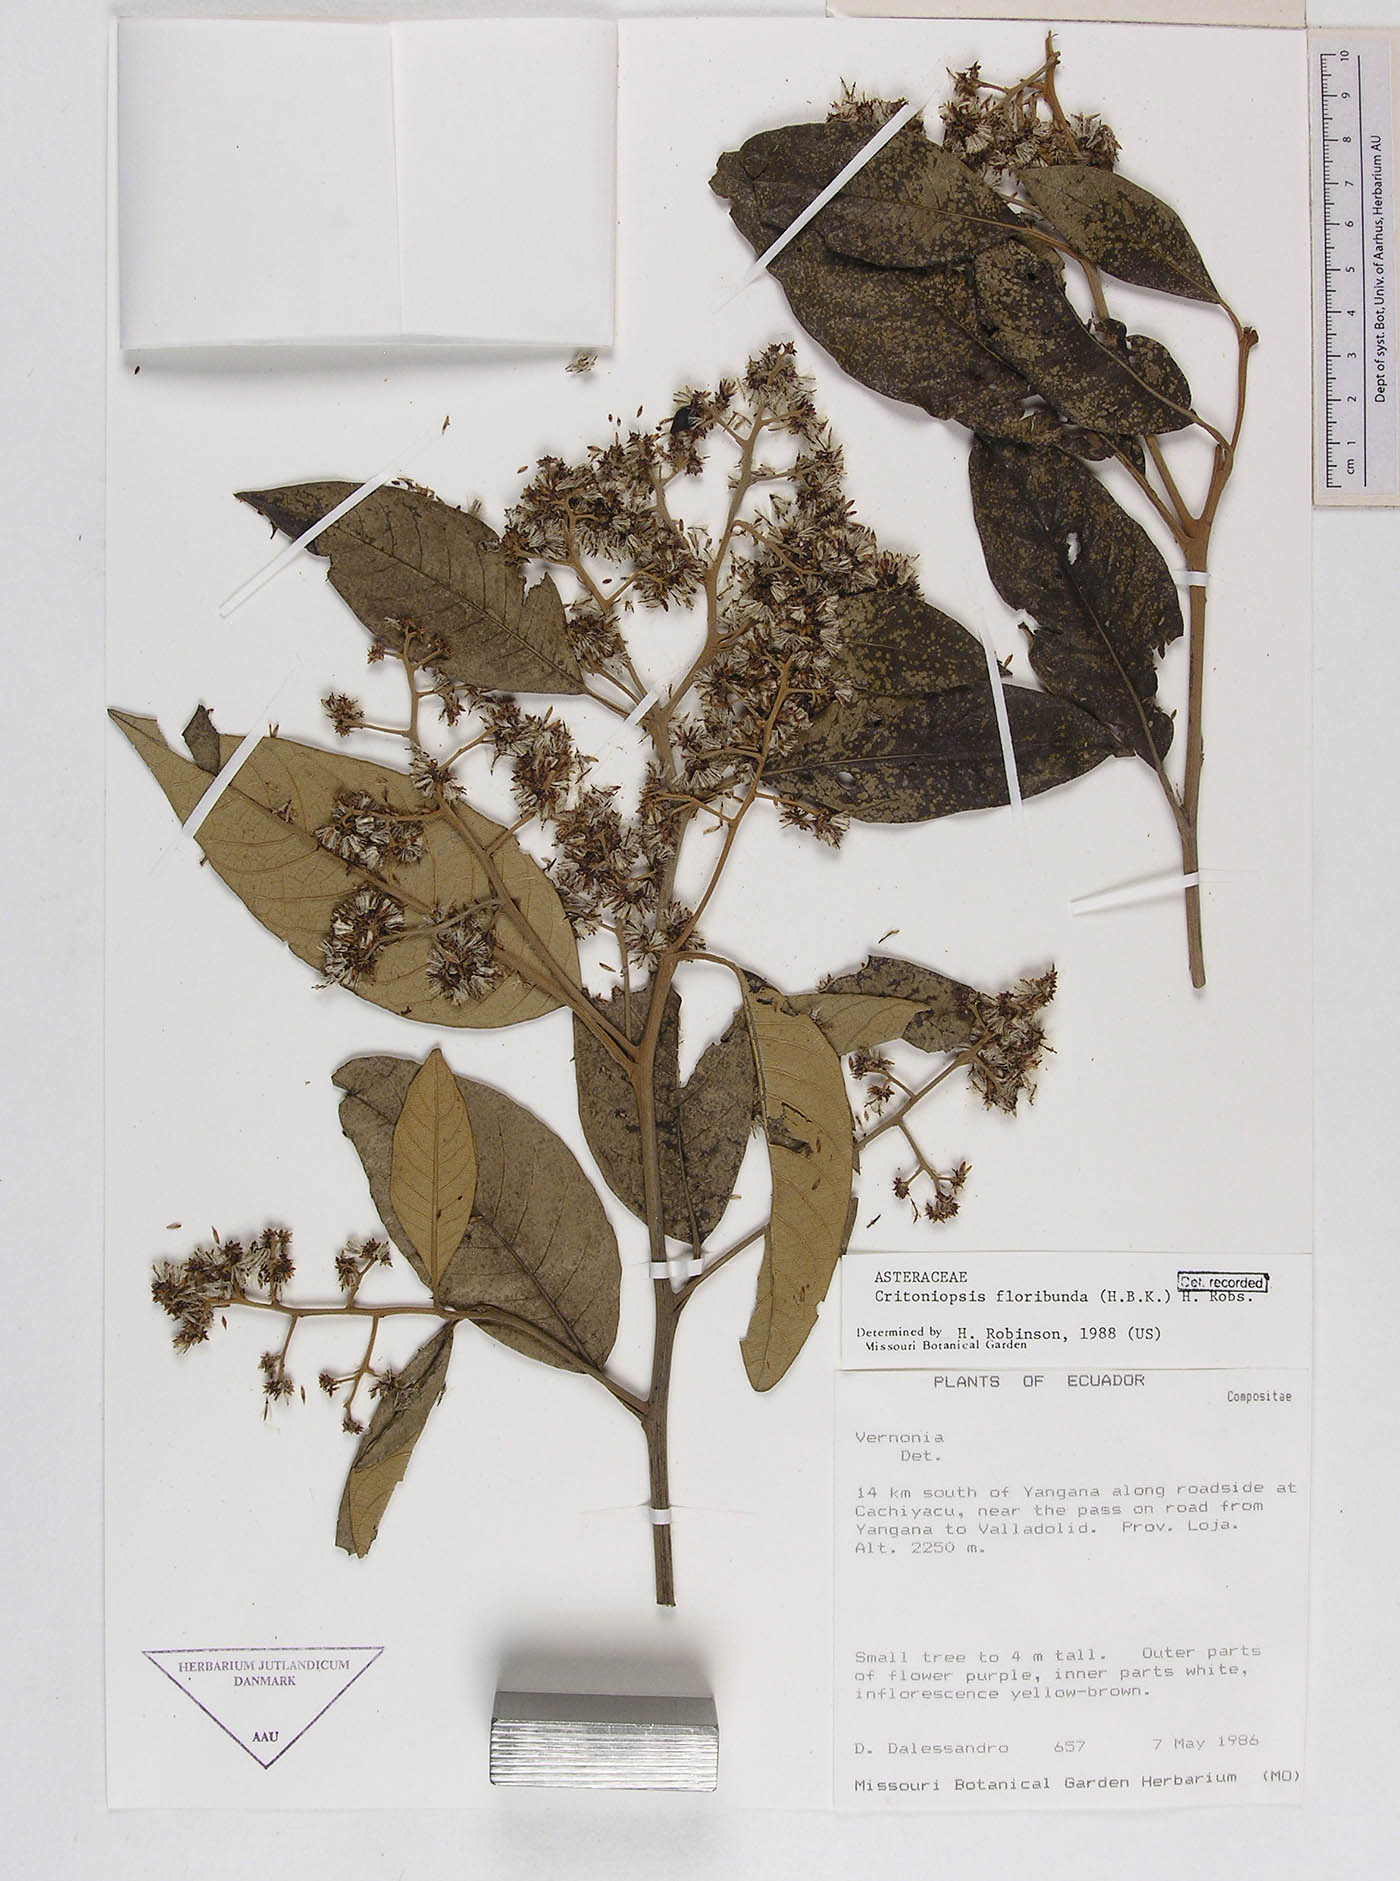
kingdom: Plantae
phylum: Tracheophyta
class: Magnoliopsida
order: Asterales
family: Asteraceae
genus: Critoniopsis
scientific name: Critoniopsis floribunda
